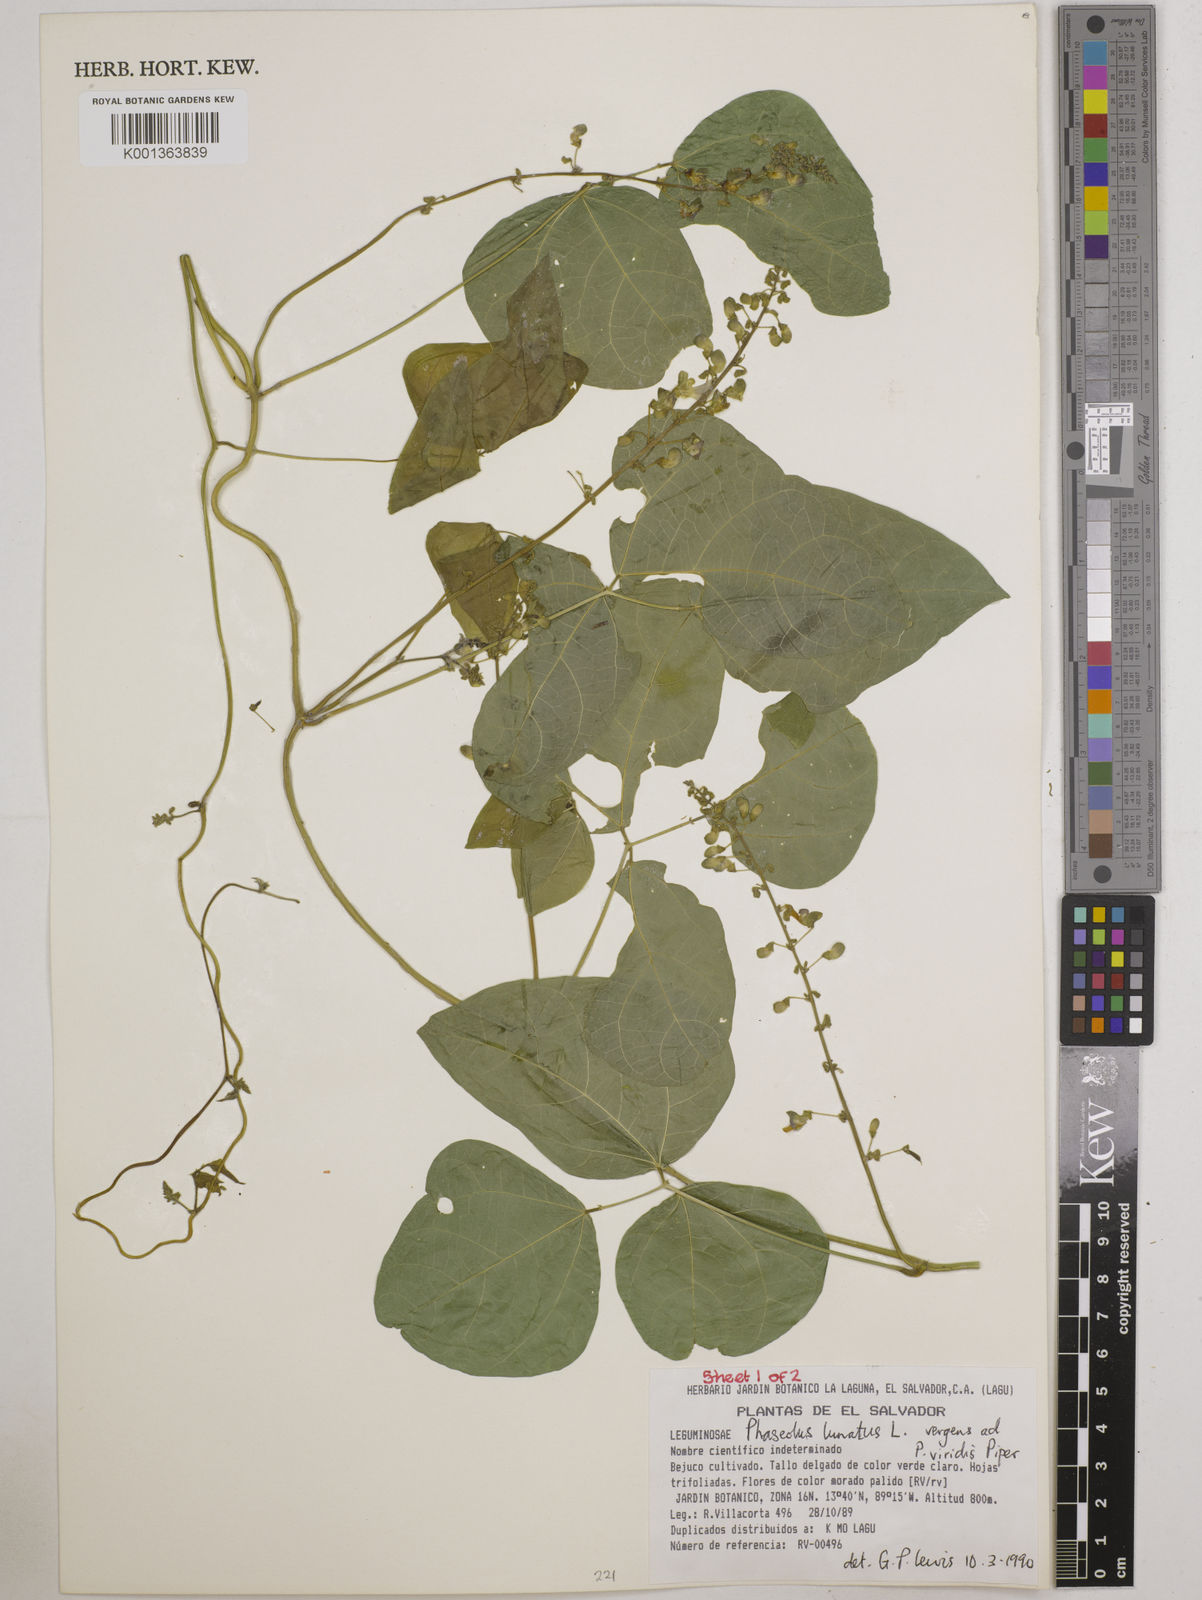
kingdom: Plantae
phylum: Tracheophyta
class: Magnoliopsida
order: Fabales
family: Fabaceae
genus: Phaseolus
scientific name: Phaseolus lunatus
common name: Sieva bean
